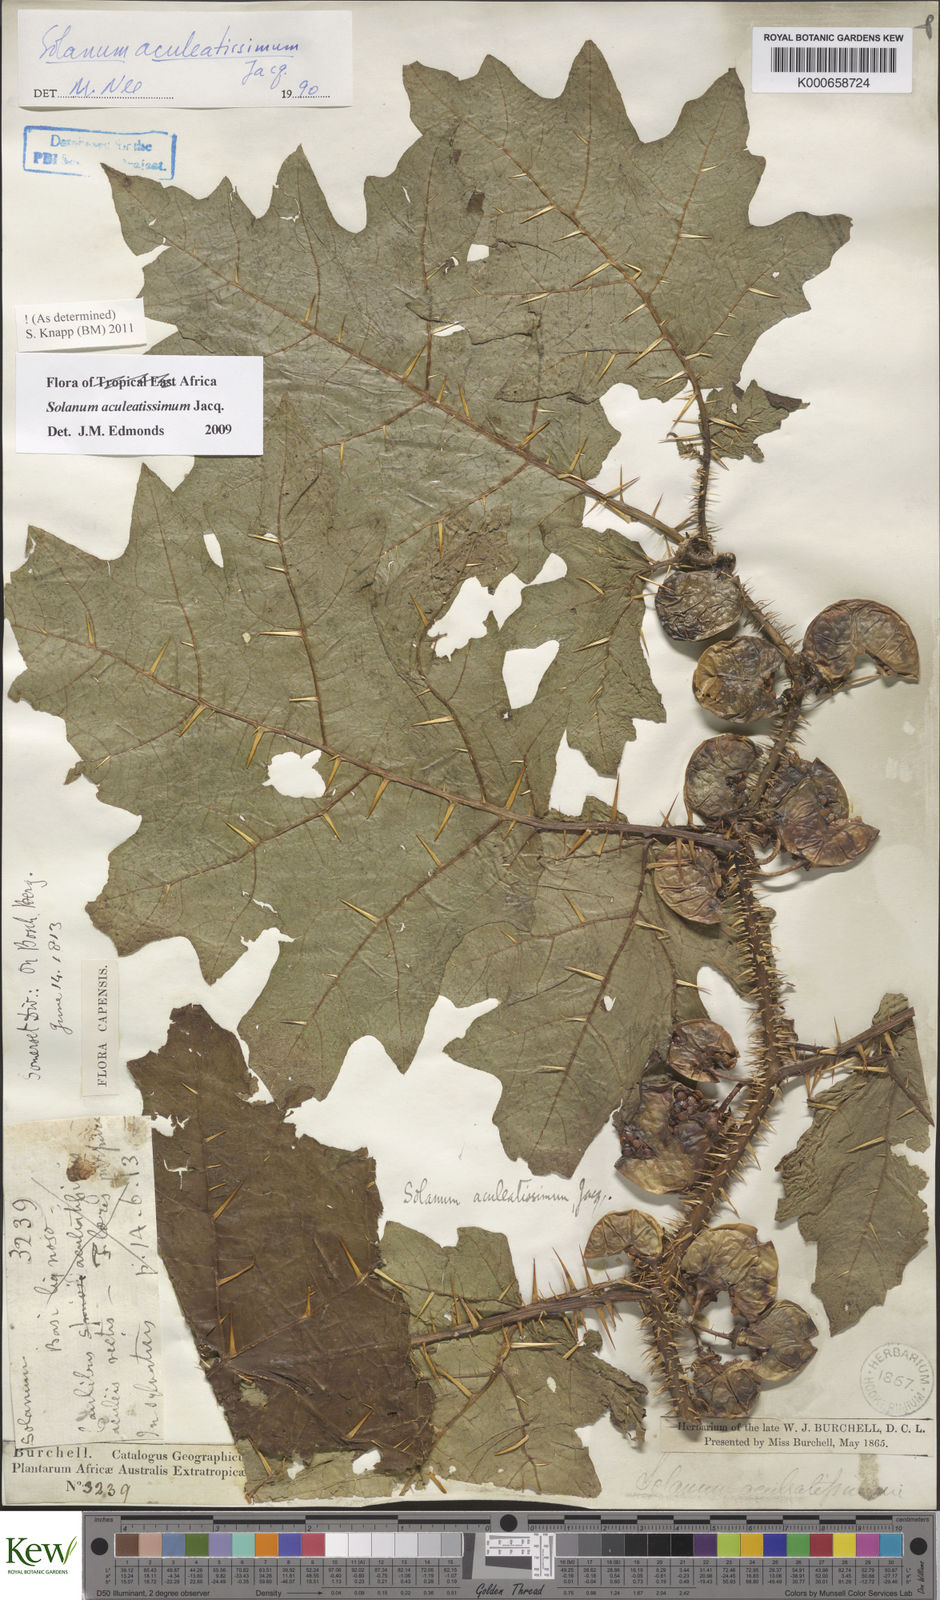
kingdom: Plantae
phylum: Tracheophyta
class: Magnoliopsida
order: Solanales
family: Solanaceae
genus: Solanum
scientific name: Solanum aculeatissimum
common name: Dutch eggplant
